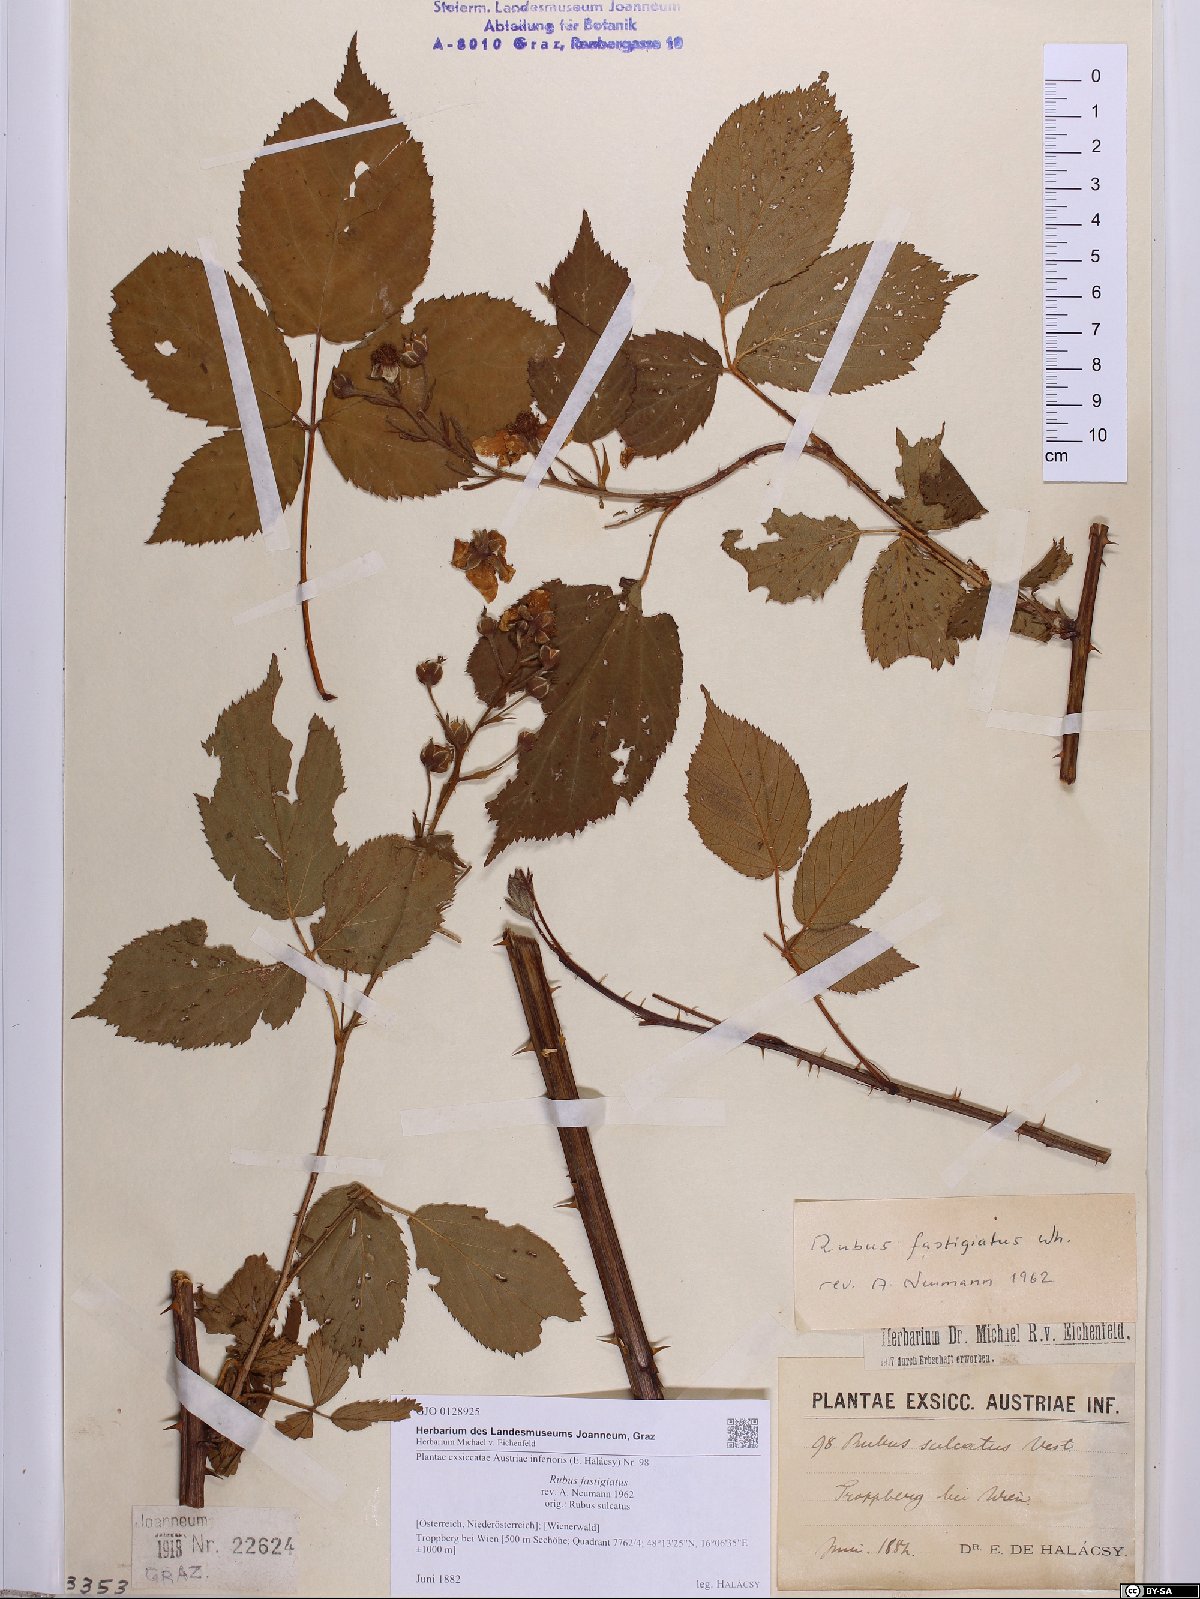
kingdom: Plantae
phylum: Tracheophyta
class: Magnoliopsida
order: Rosales
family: Rosaceae
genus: Rubus
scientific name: Rubus polonicus
